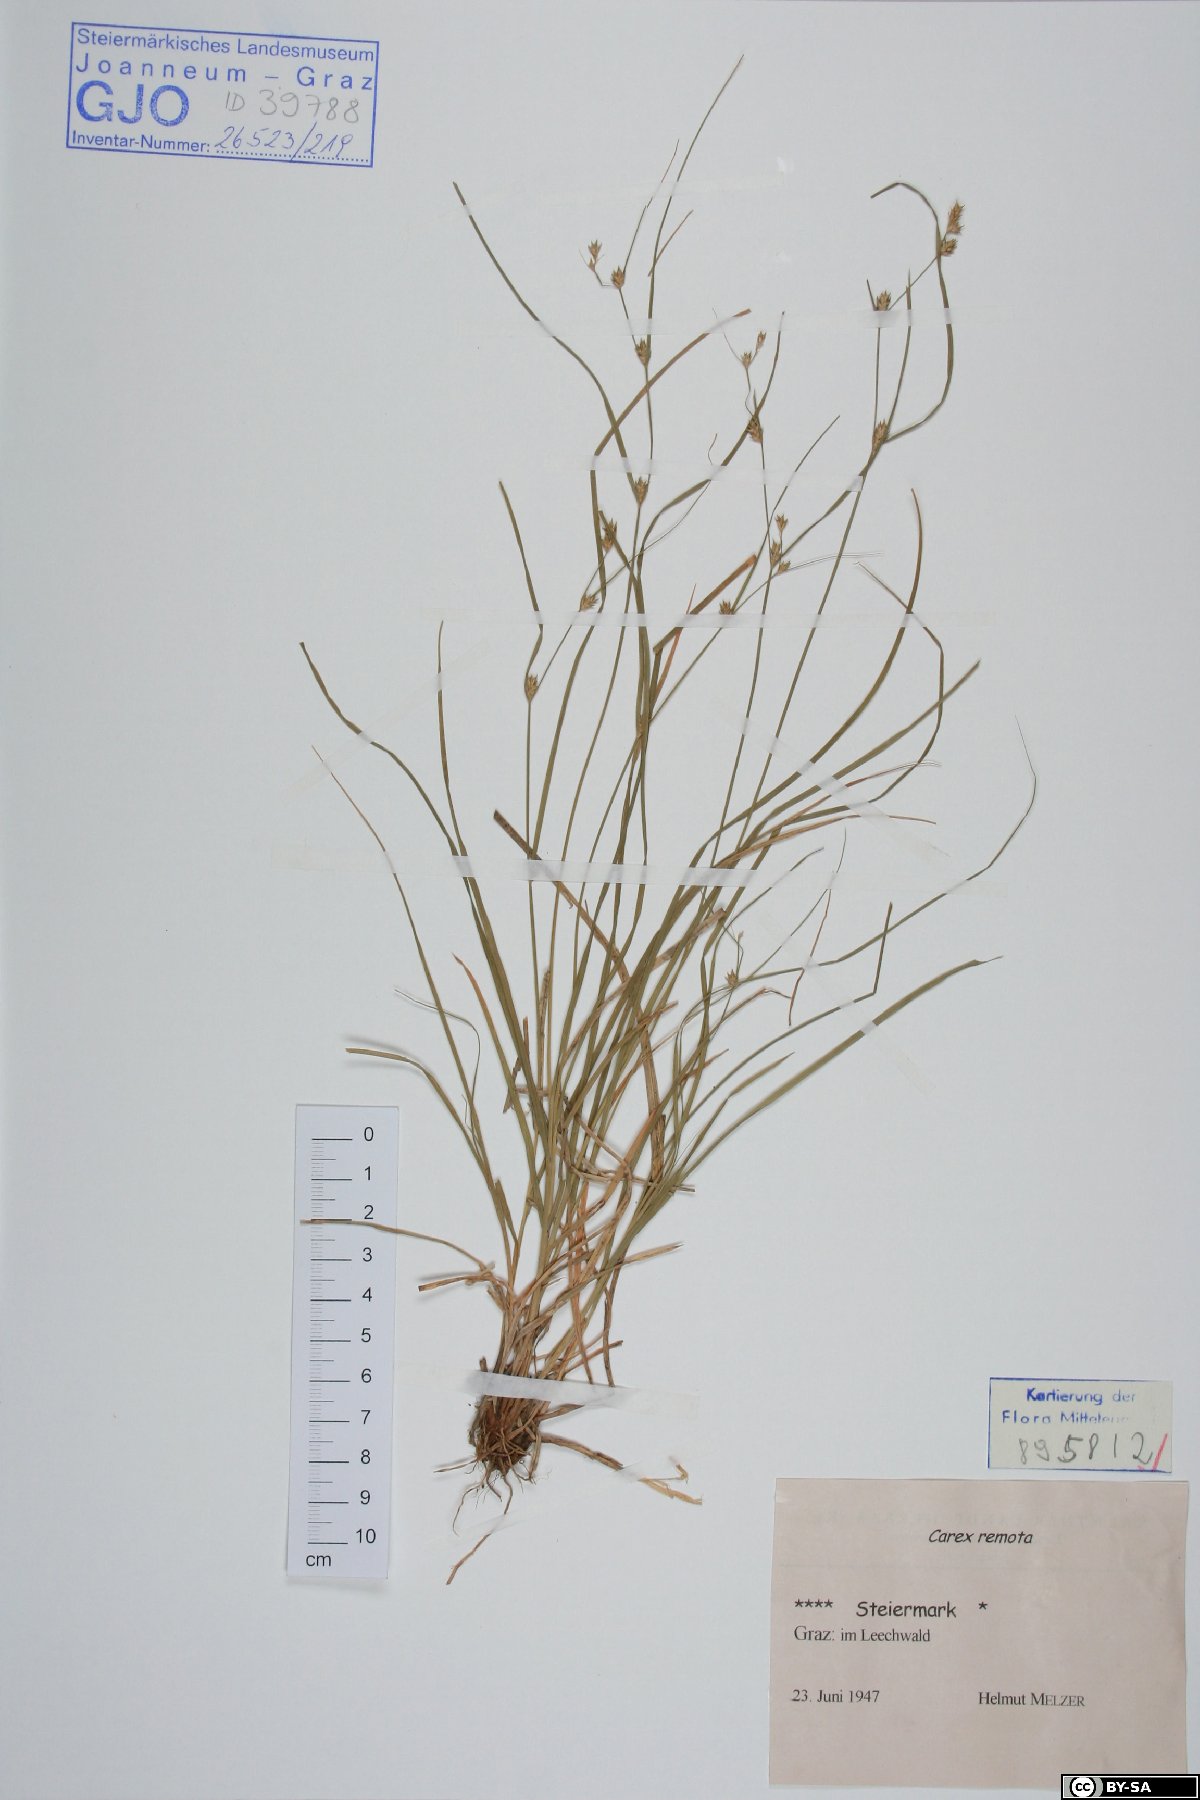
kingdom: Plantae
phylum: Tracheophyta
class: Liliopsida
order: Poales
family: Cyperaceae
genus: Carex
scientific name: Carex remota
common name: Remote sedge
